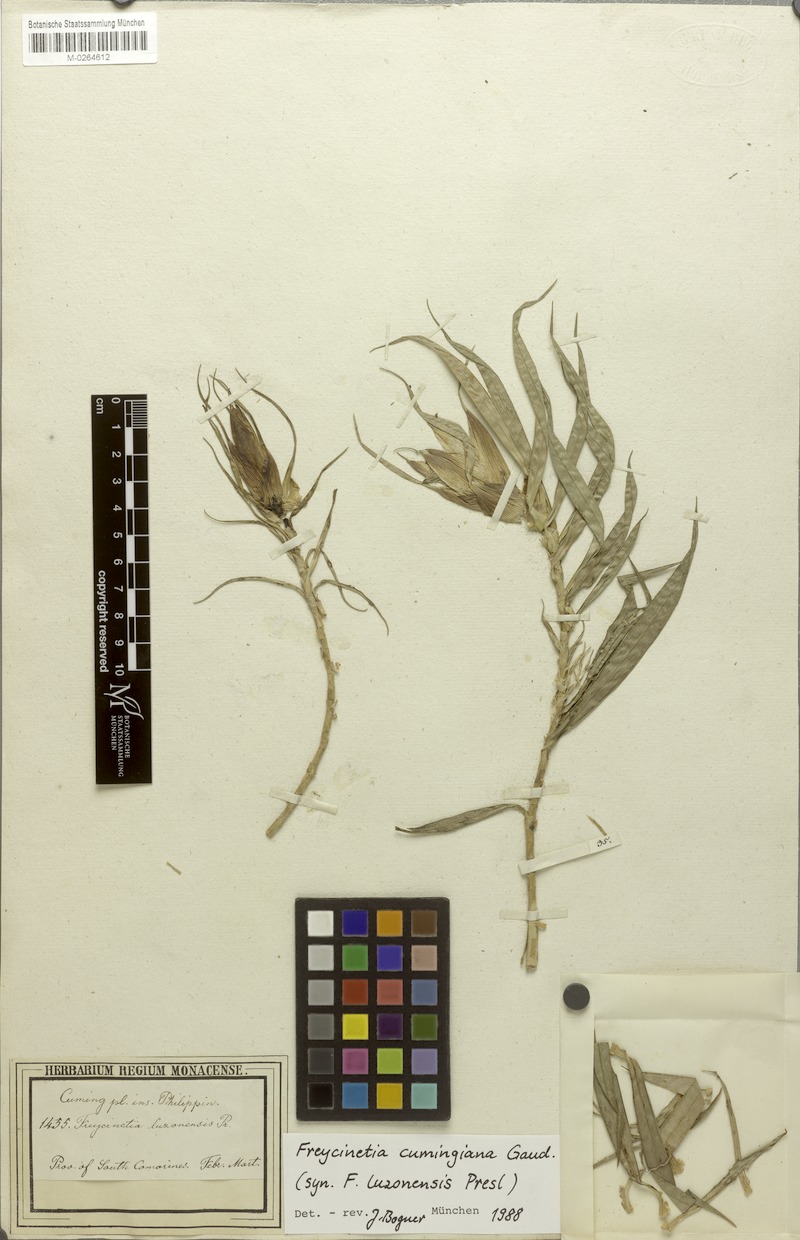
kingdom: Plantae
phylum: Tracheophyta
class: Liliopsida
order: Pandanales
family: Pandanaceae
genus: Freycinetia
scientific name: Freycinetia cumingiana
